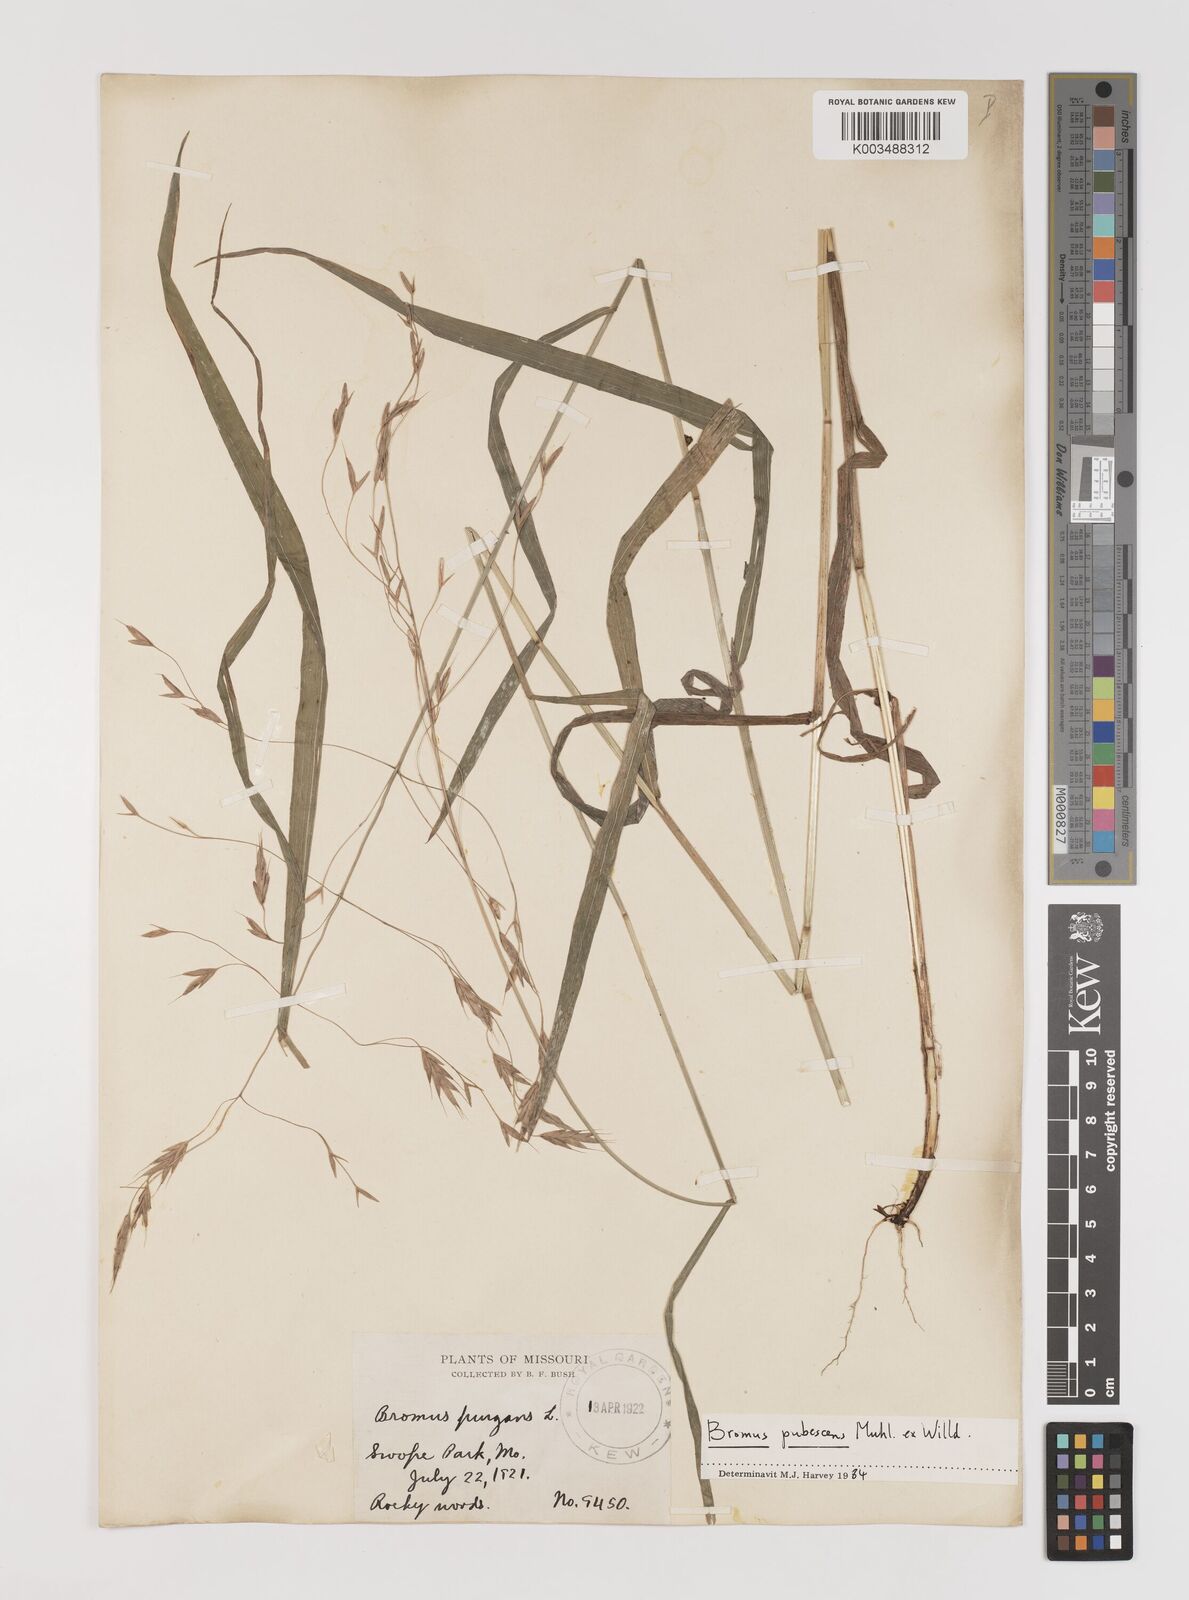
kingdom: Plantae
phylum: Tracheophyta
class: Liliopsida
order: Poales
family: Poaceae
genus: Bromus
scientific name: Bromus pubescens
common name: Hairy wood brome grass
